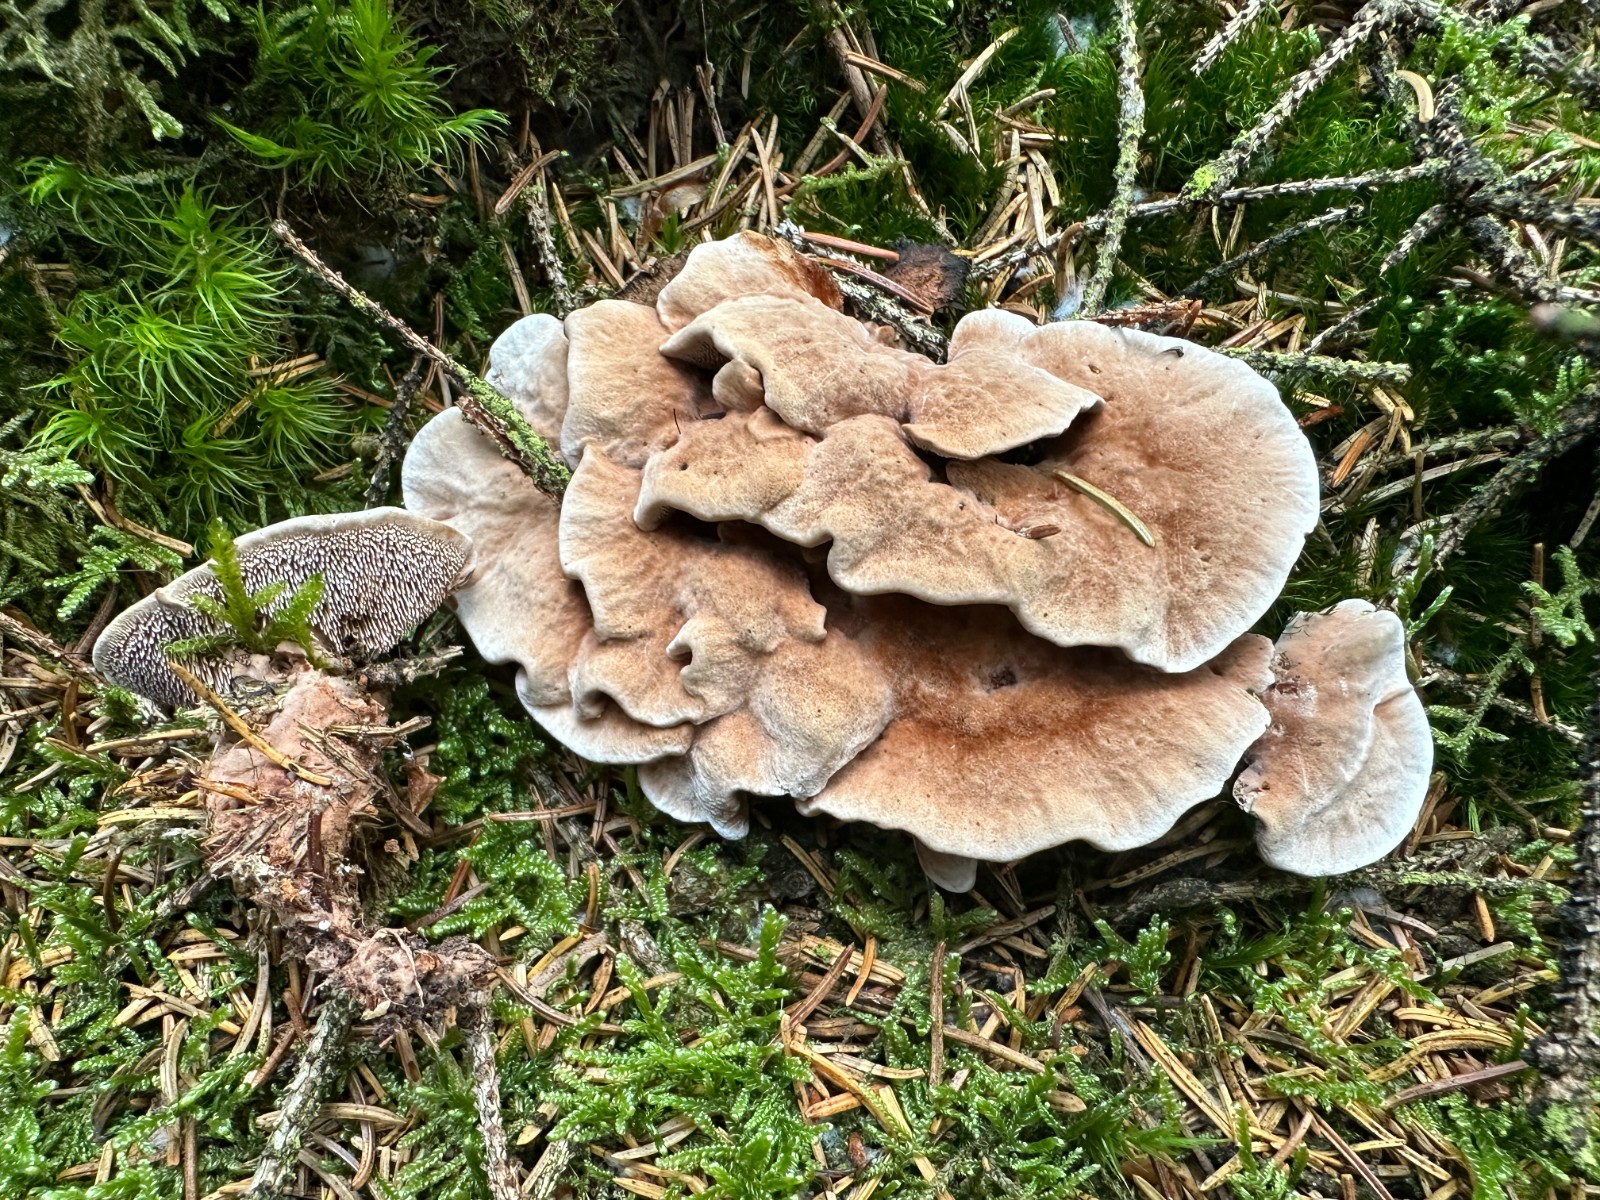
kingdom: Fungi
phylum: Basidiomycota
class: Agaricomycetes
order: Thelephorales
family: Bankeraceae
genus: Hydnellum
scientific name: Hydnellum cumulatum
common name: Rosette tooth
